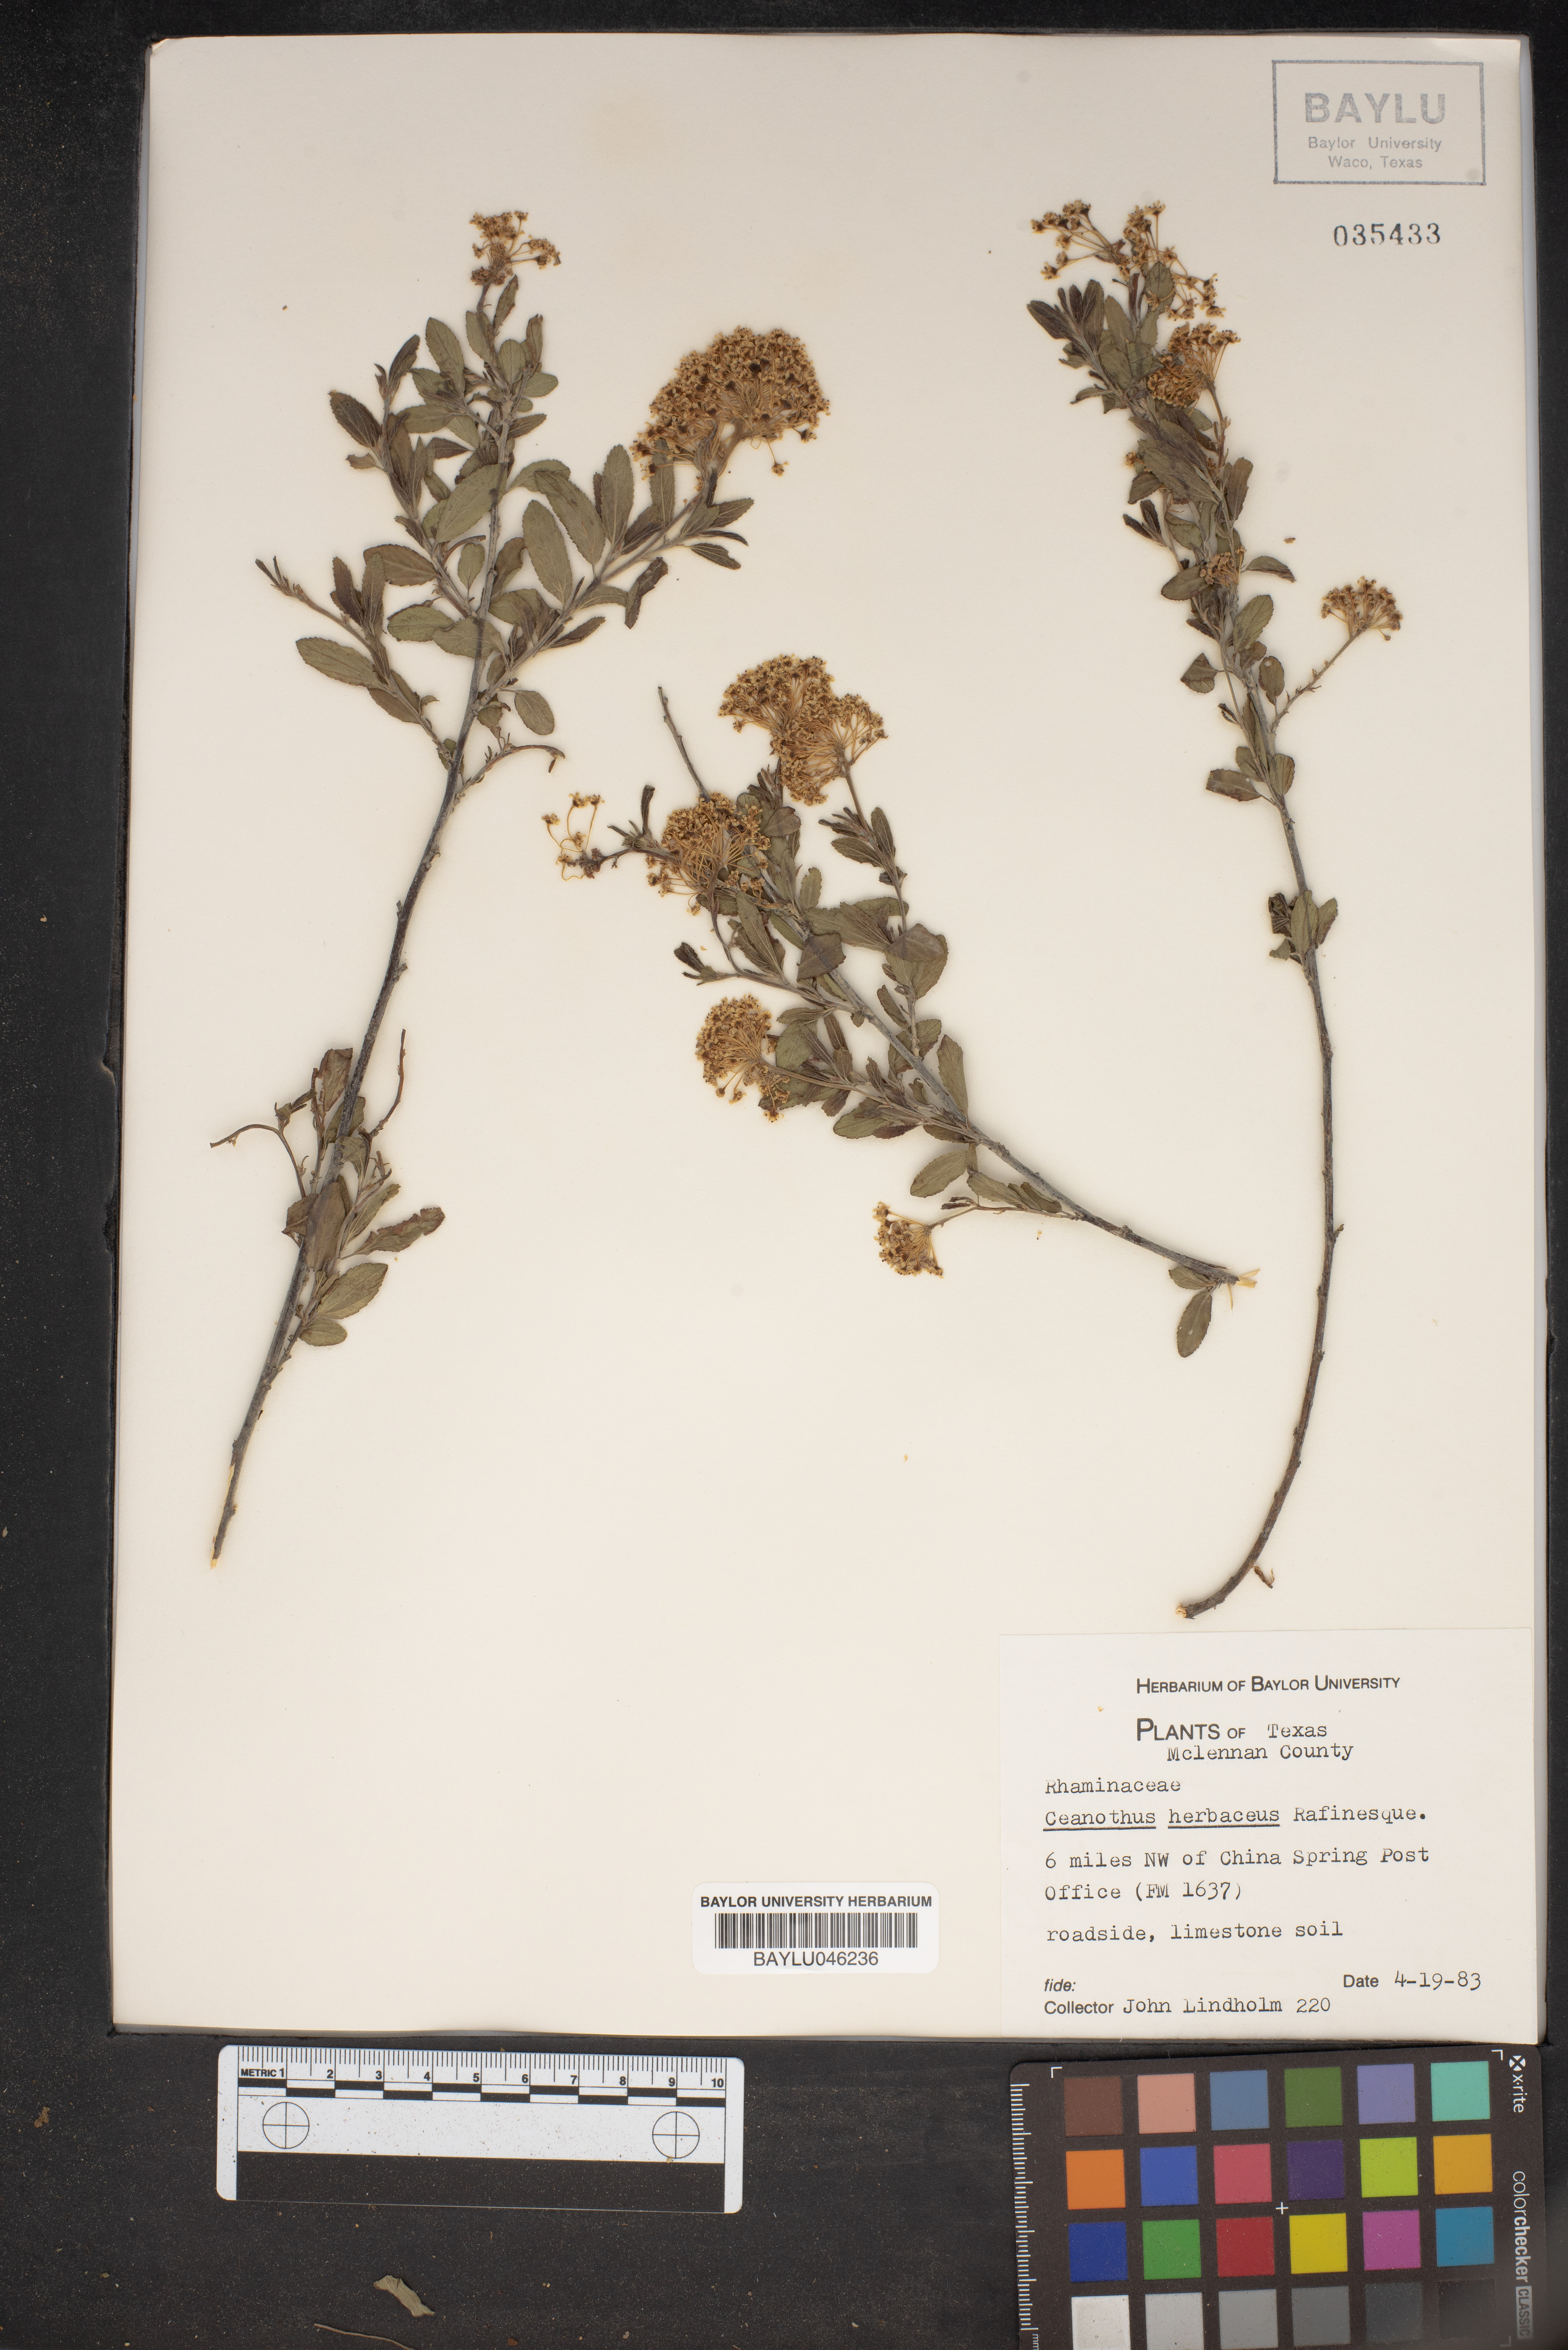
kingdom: Plantae
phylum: Tracheophyta
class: Magnoliopsida
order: Rosales
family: Rhamnaceae
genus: Ceanothus
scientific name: Ceanothus herbaceus
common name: Inland ceanothus
